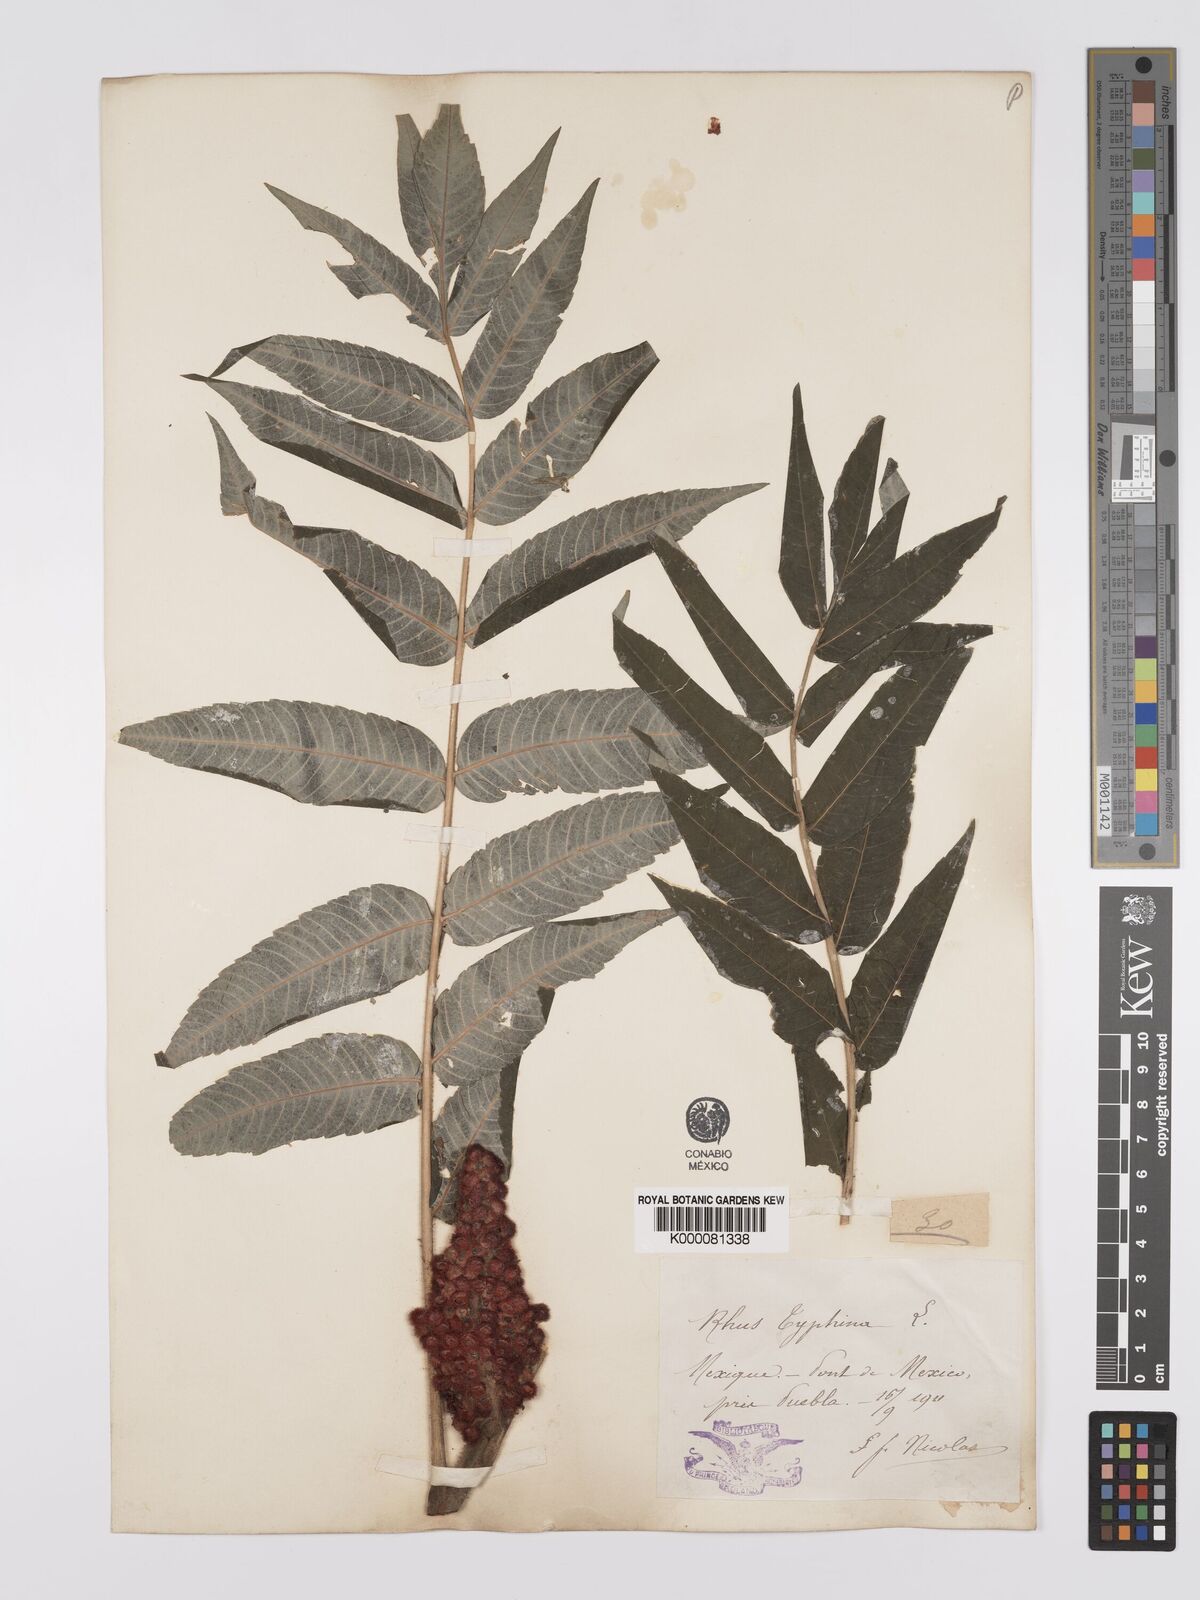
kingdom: Plantae
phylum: Tracheophyta
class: Magnoliopsida
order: Sapindales
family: Anacardiaceae
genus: Rhus
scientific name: Rhus typhina
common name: Staghorn sumac
